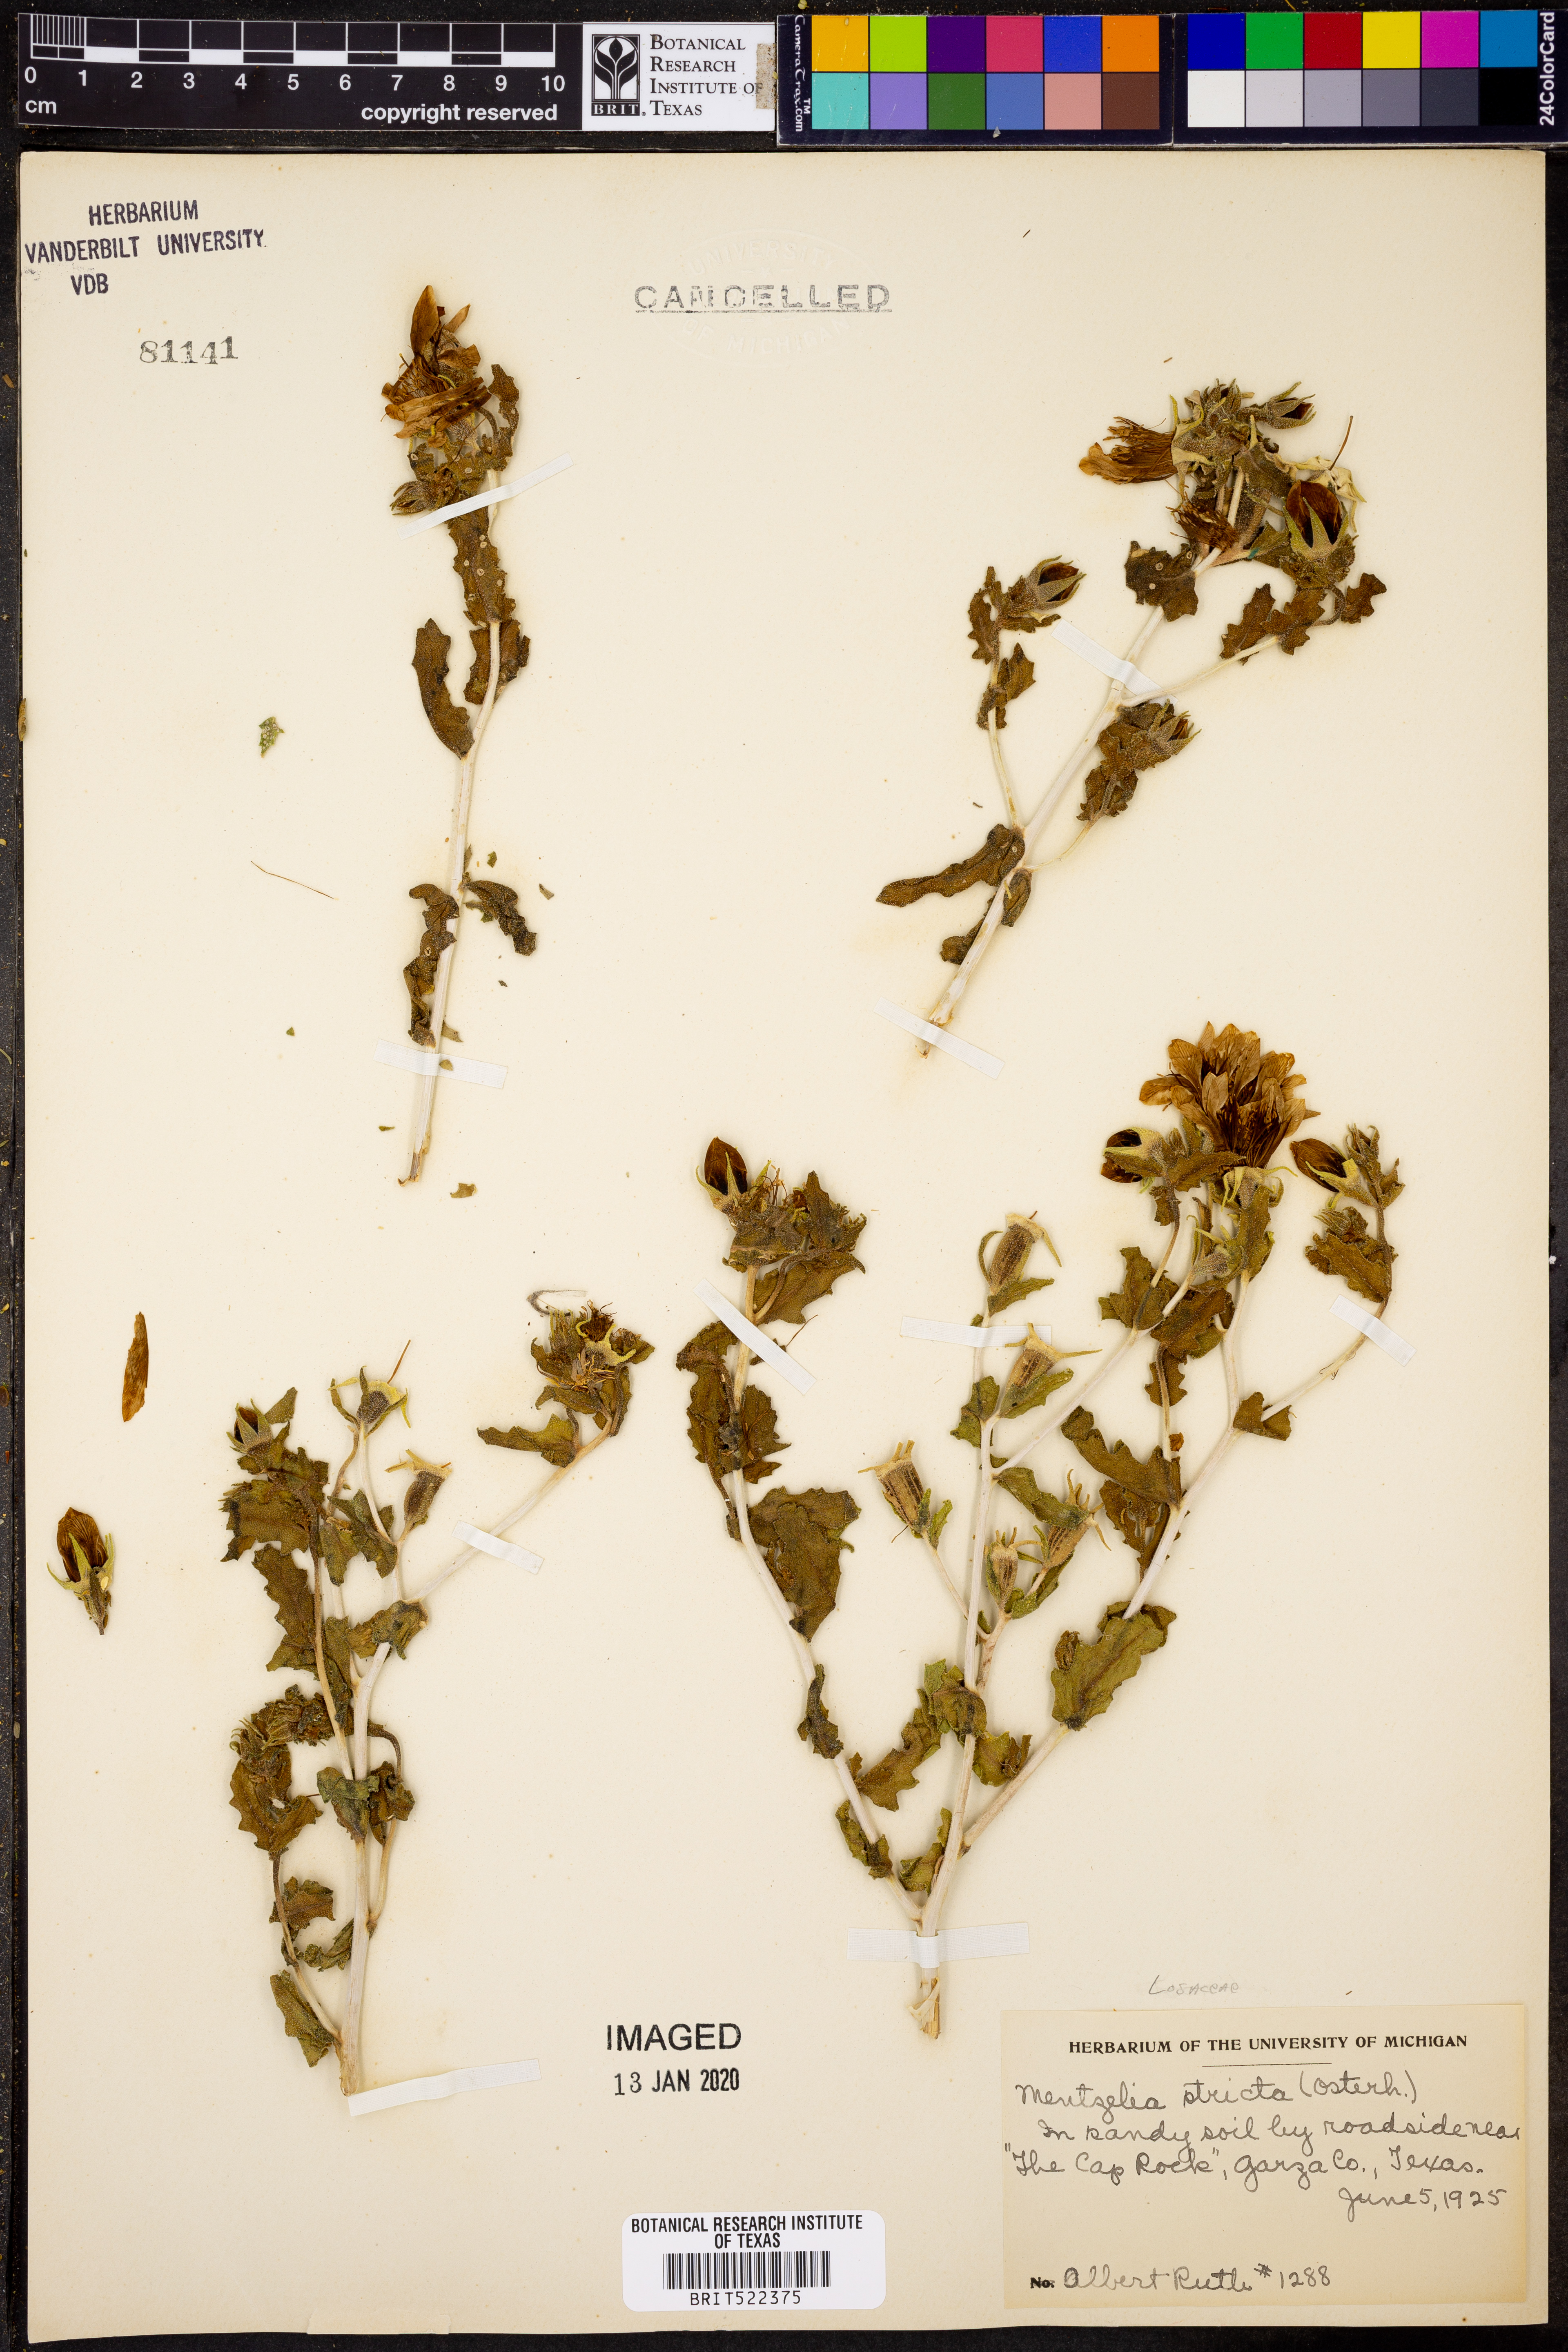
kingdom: Plantae
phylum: Tracheophyta
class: Magnoliopsida
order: Cornales
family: Loasaceae
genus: Mentzelia
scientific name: Mentzelia nuda
